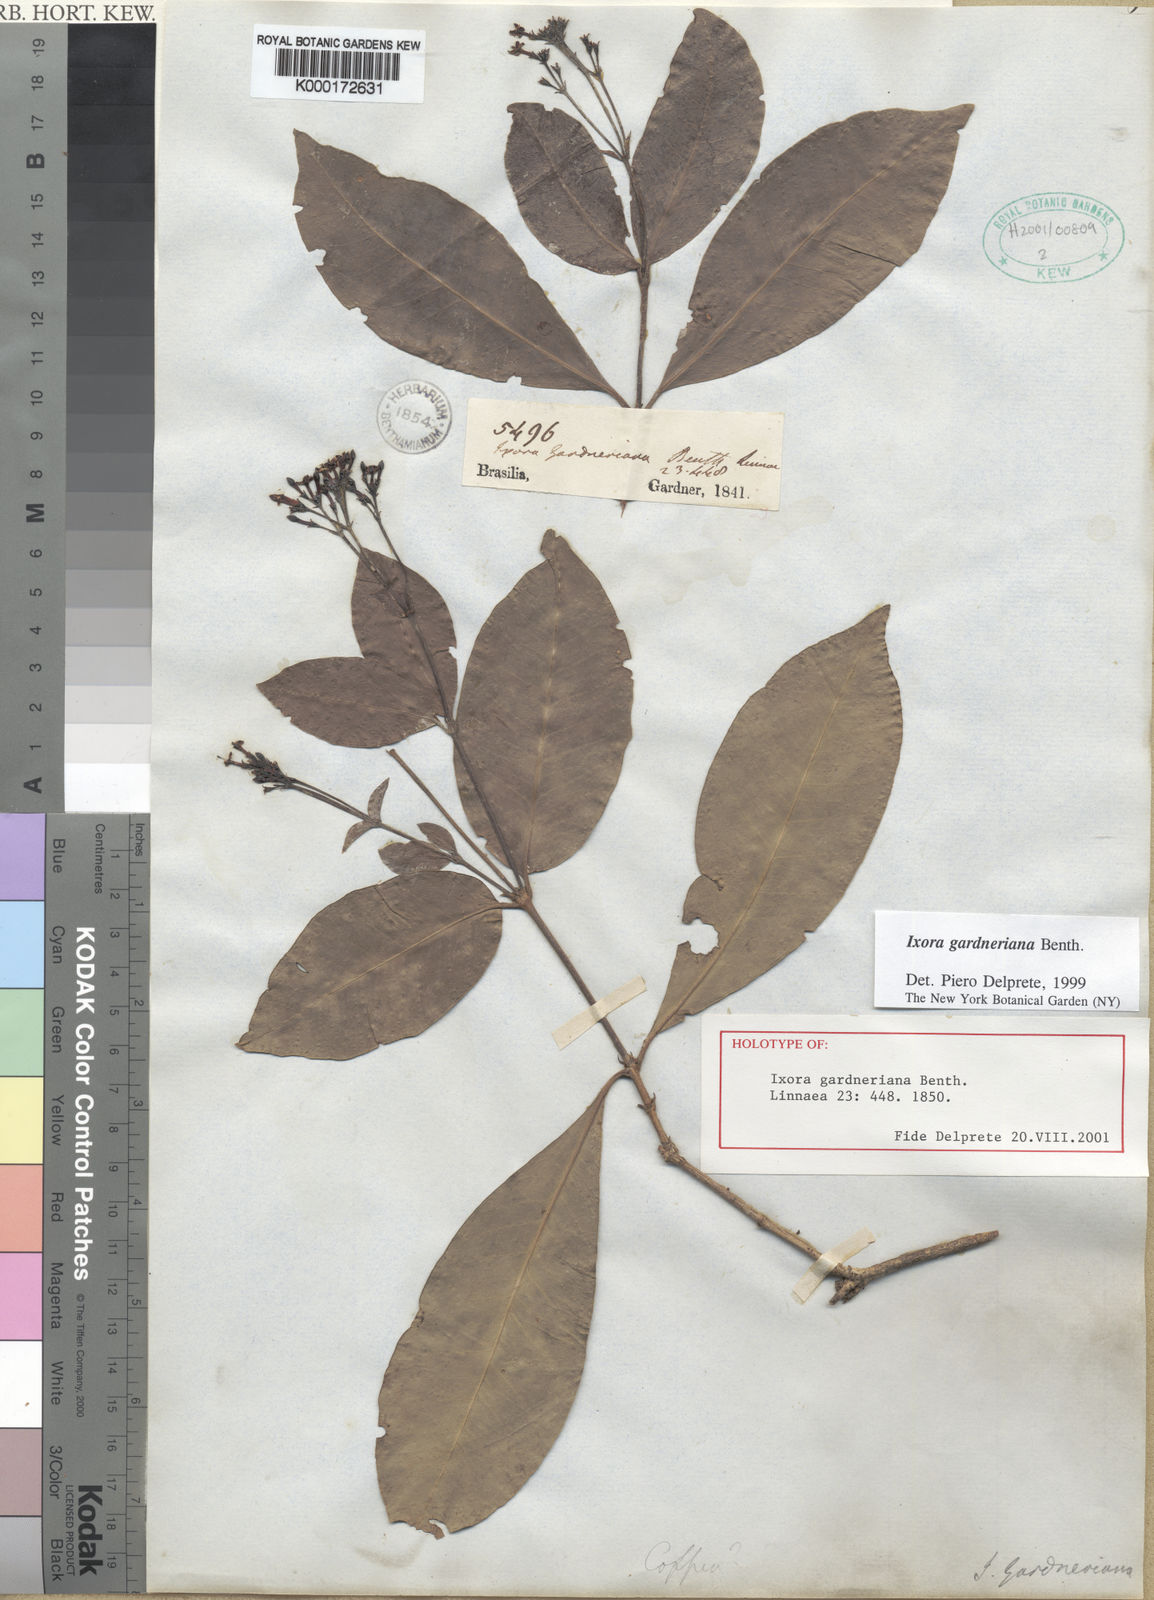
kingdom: Plantae
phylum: Tracheophyta
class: Magnoliopsida
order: Gentianales
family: Rubiaceae
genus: Ixora
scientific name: Ixora gardneriana
